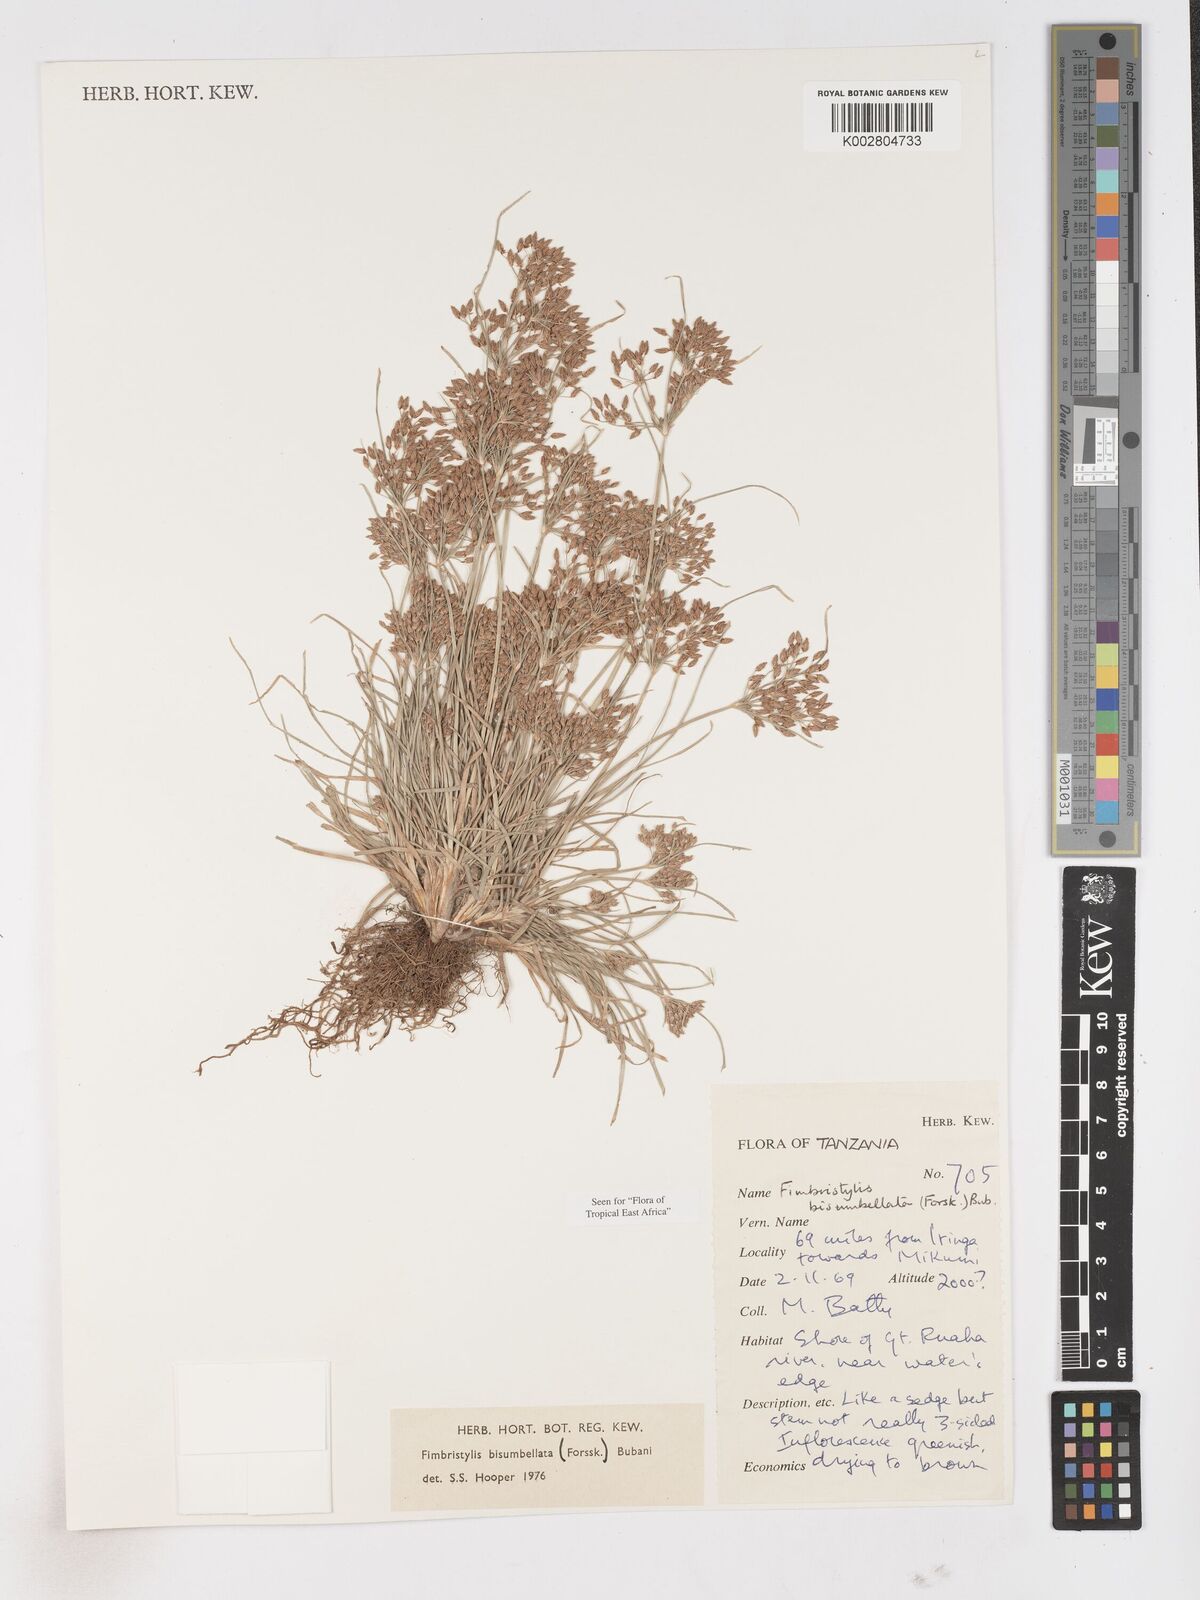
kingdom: Plantae
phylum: Tracheophyta
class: Liliopsida
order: Poales
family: Cyperaceae
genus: Fimbristylis
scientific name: Fimbristylis bisumbellata
